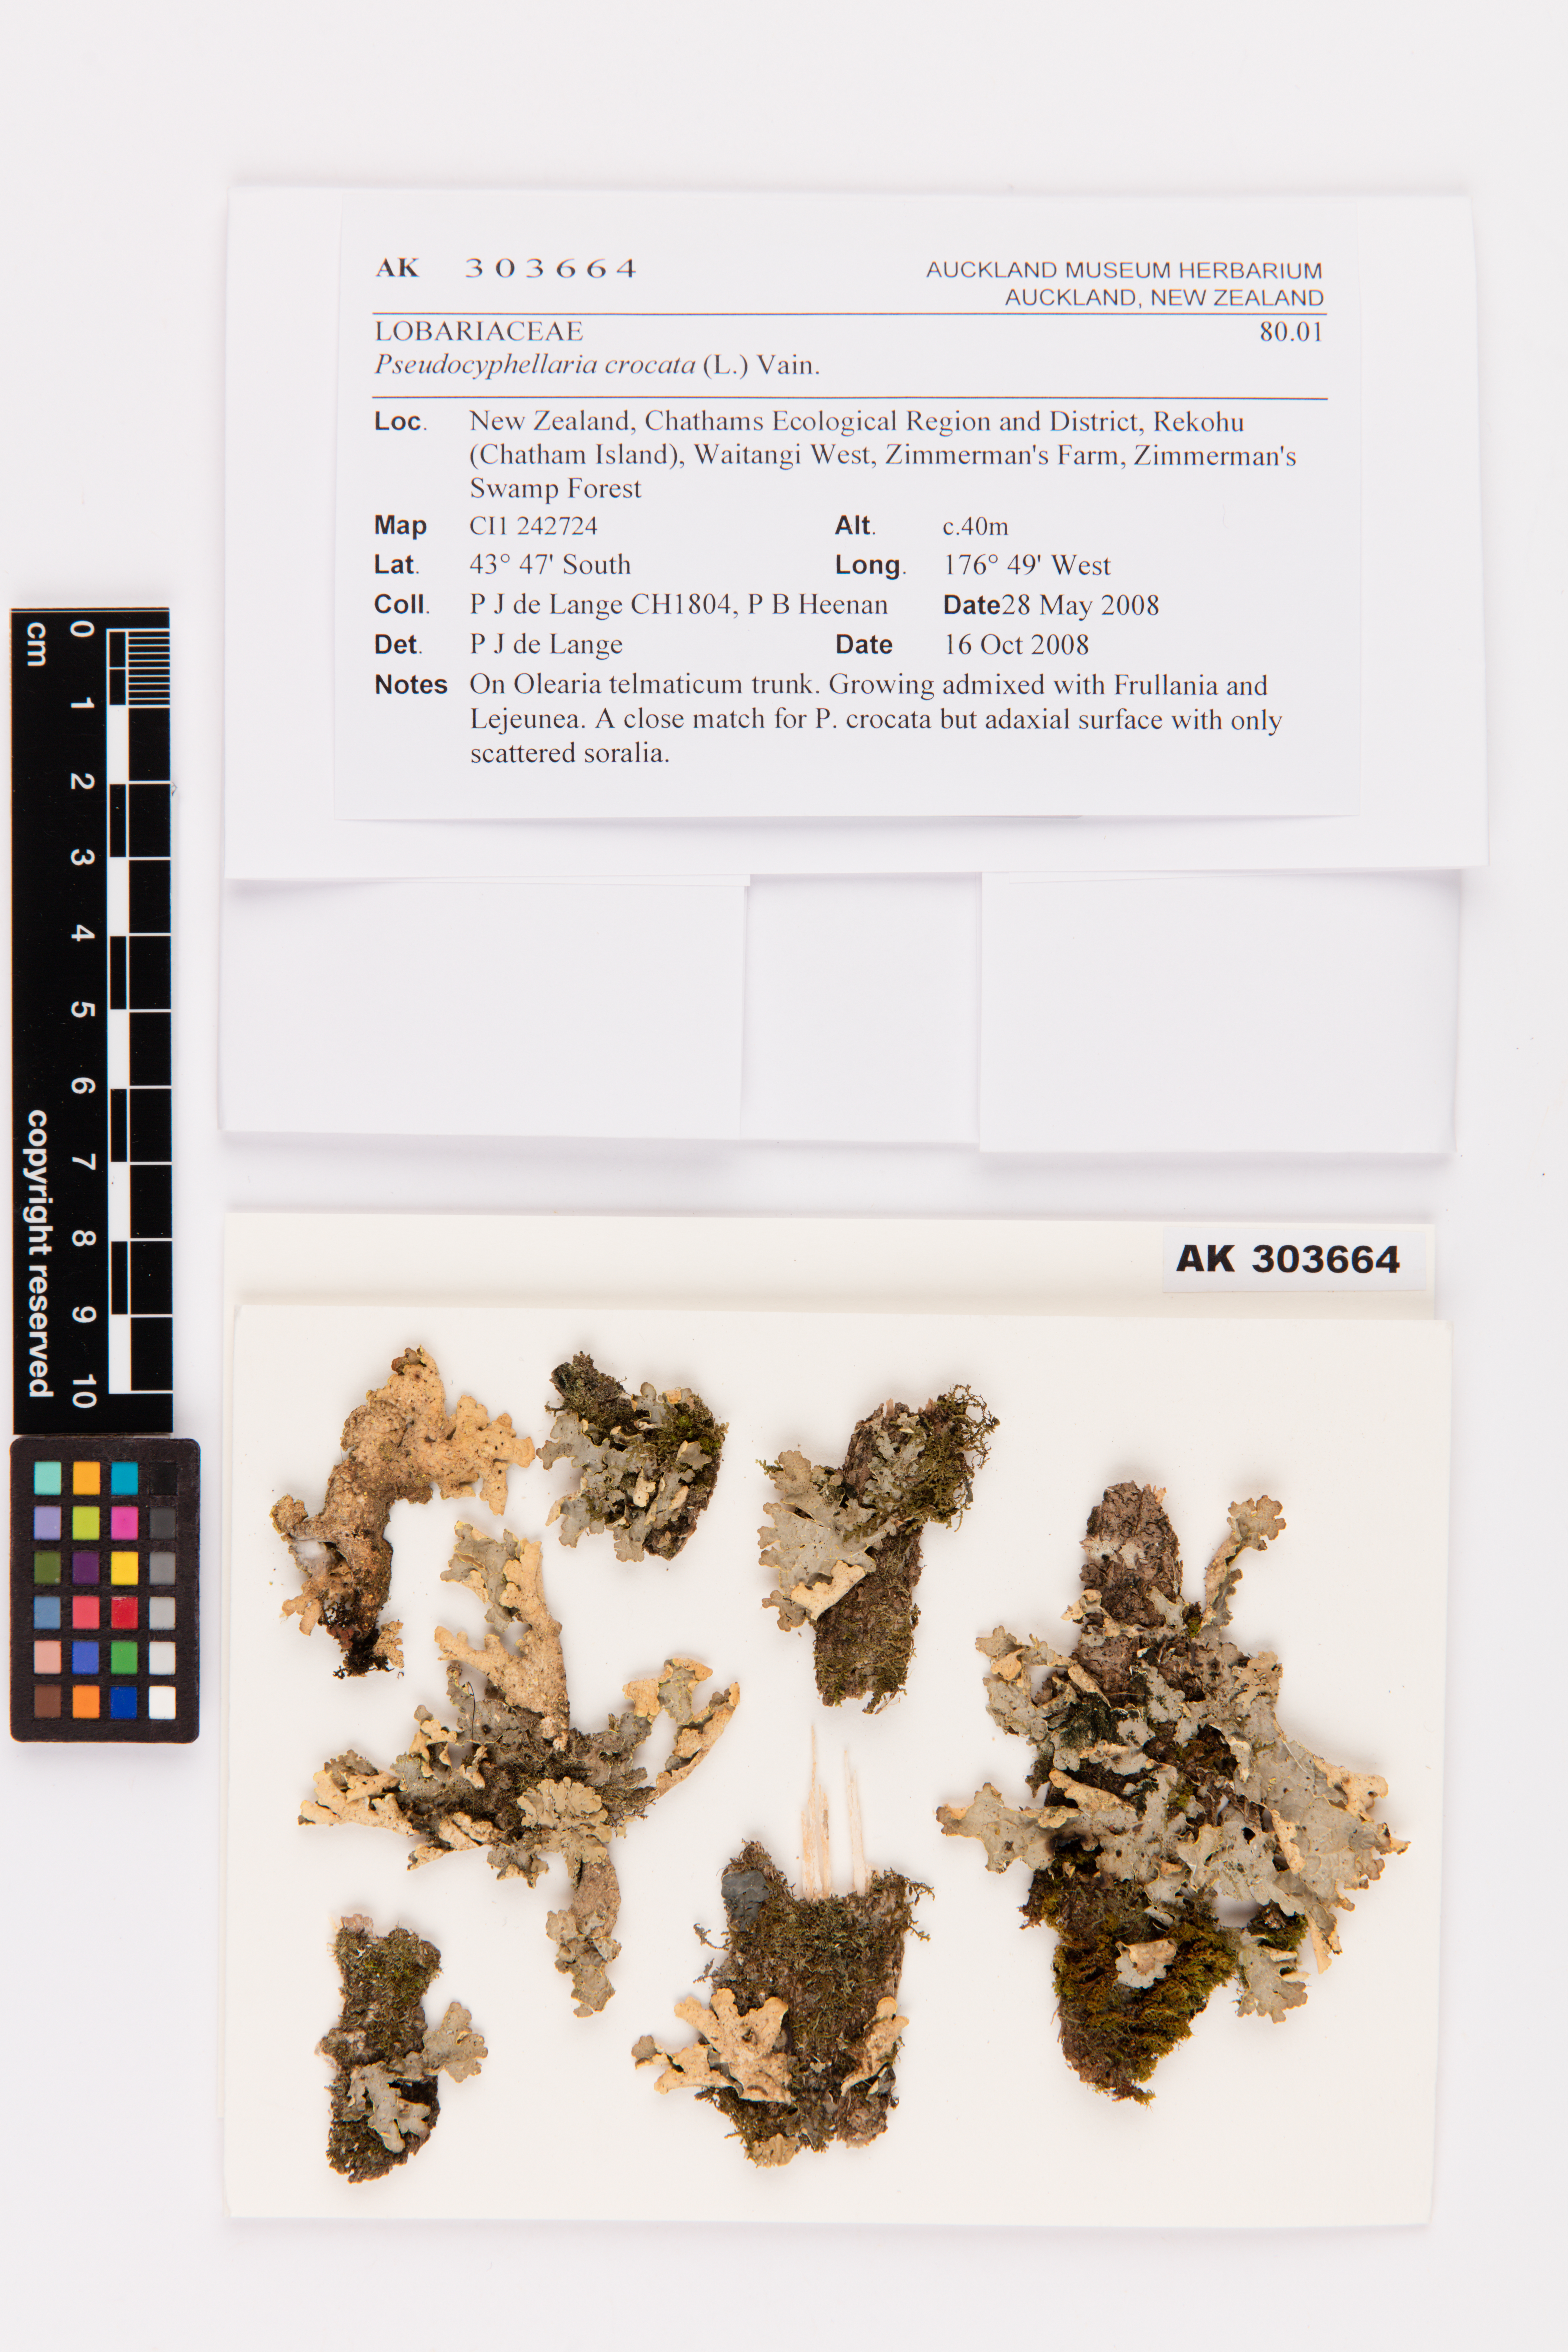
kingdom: Fungi
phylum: Ascomycota
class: Lecanoromycetes
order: Peltigerales
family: Lobariaceae
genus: Pseudocyphellaria
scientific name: Pseudocyphellaria crocata
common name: Golden specklebelly
